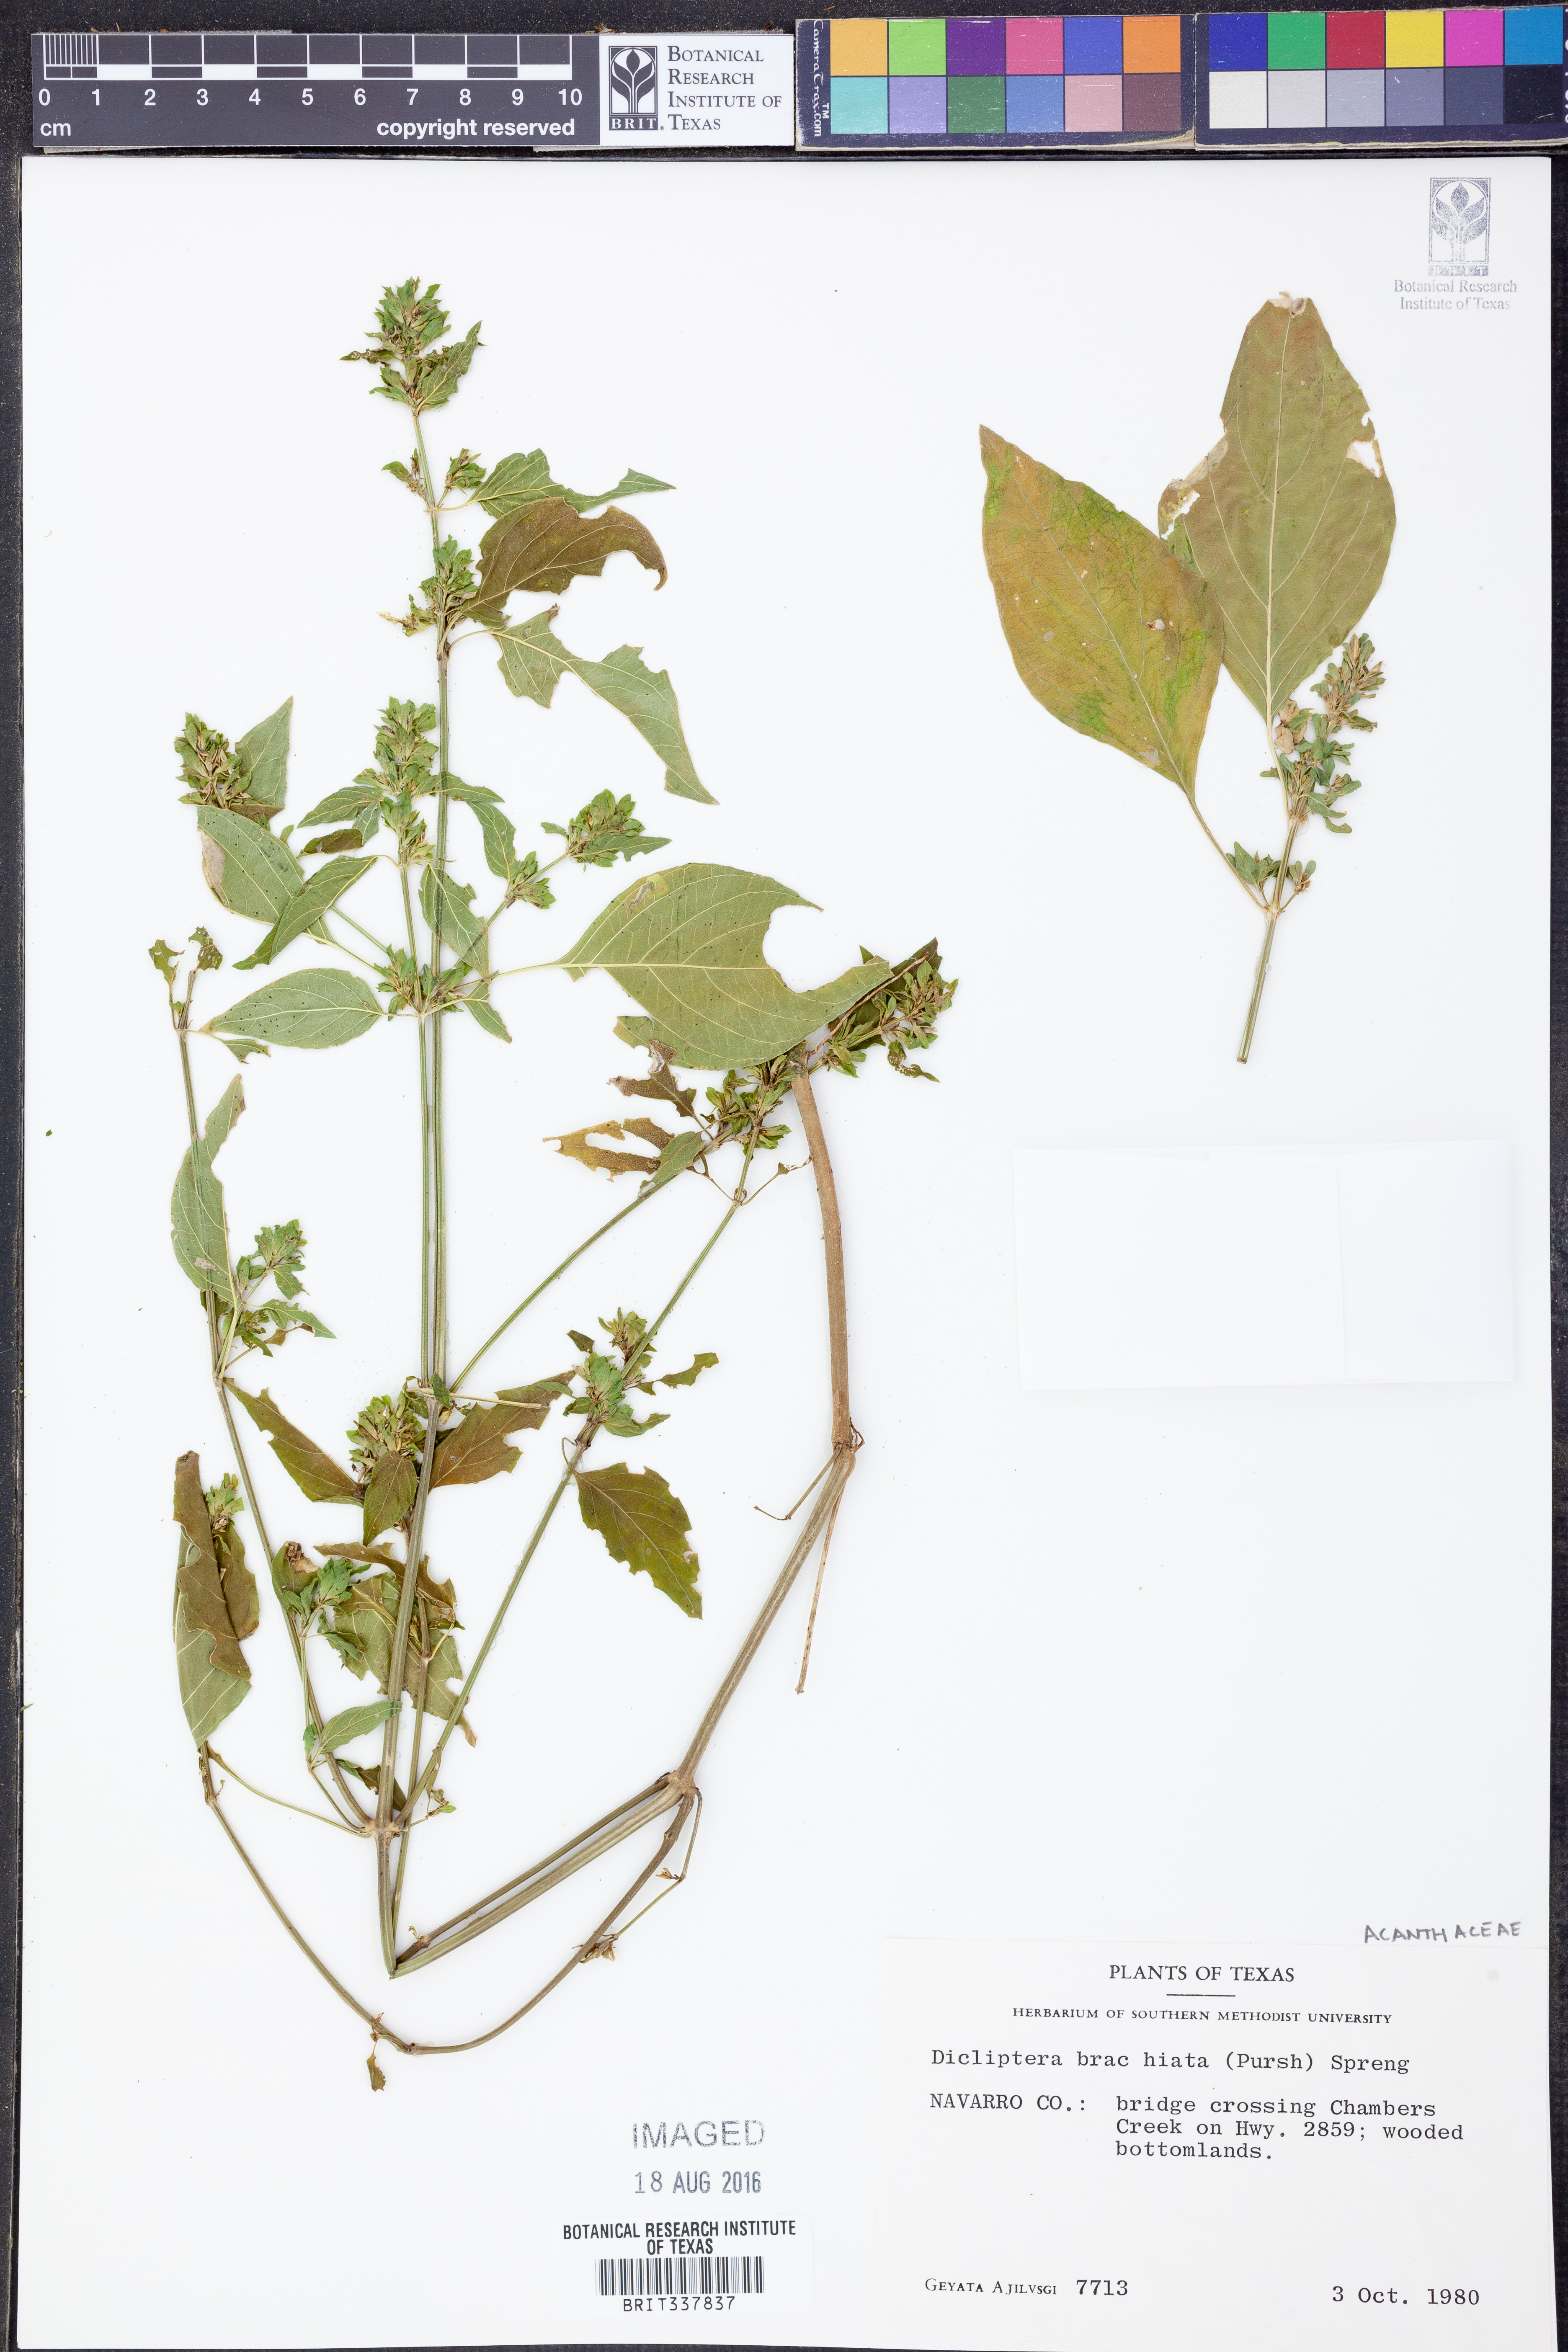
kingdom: Plantae
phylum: Tracheophyta
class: Magnoliopsida
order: Lamiales
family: Acanthaceae
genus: Dicliptera
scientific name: Dicliptera brachiata
